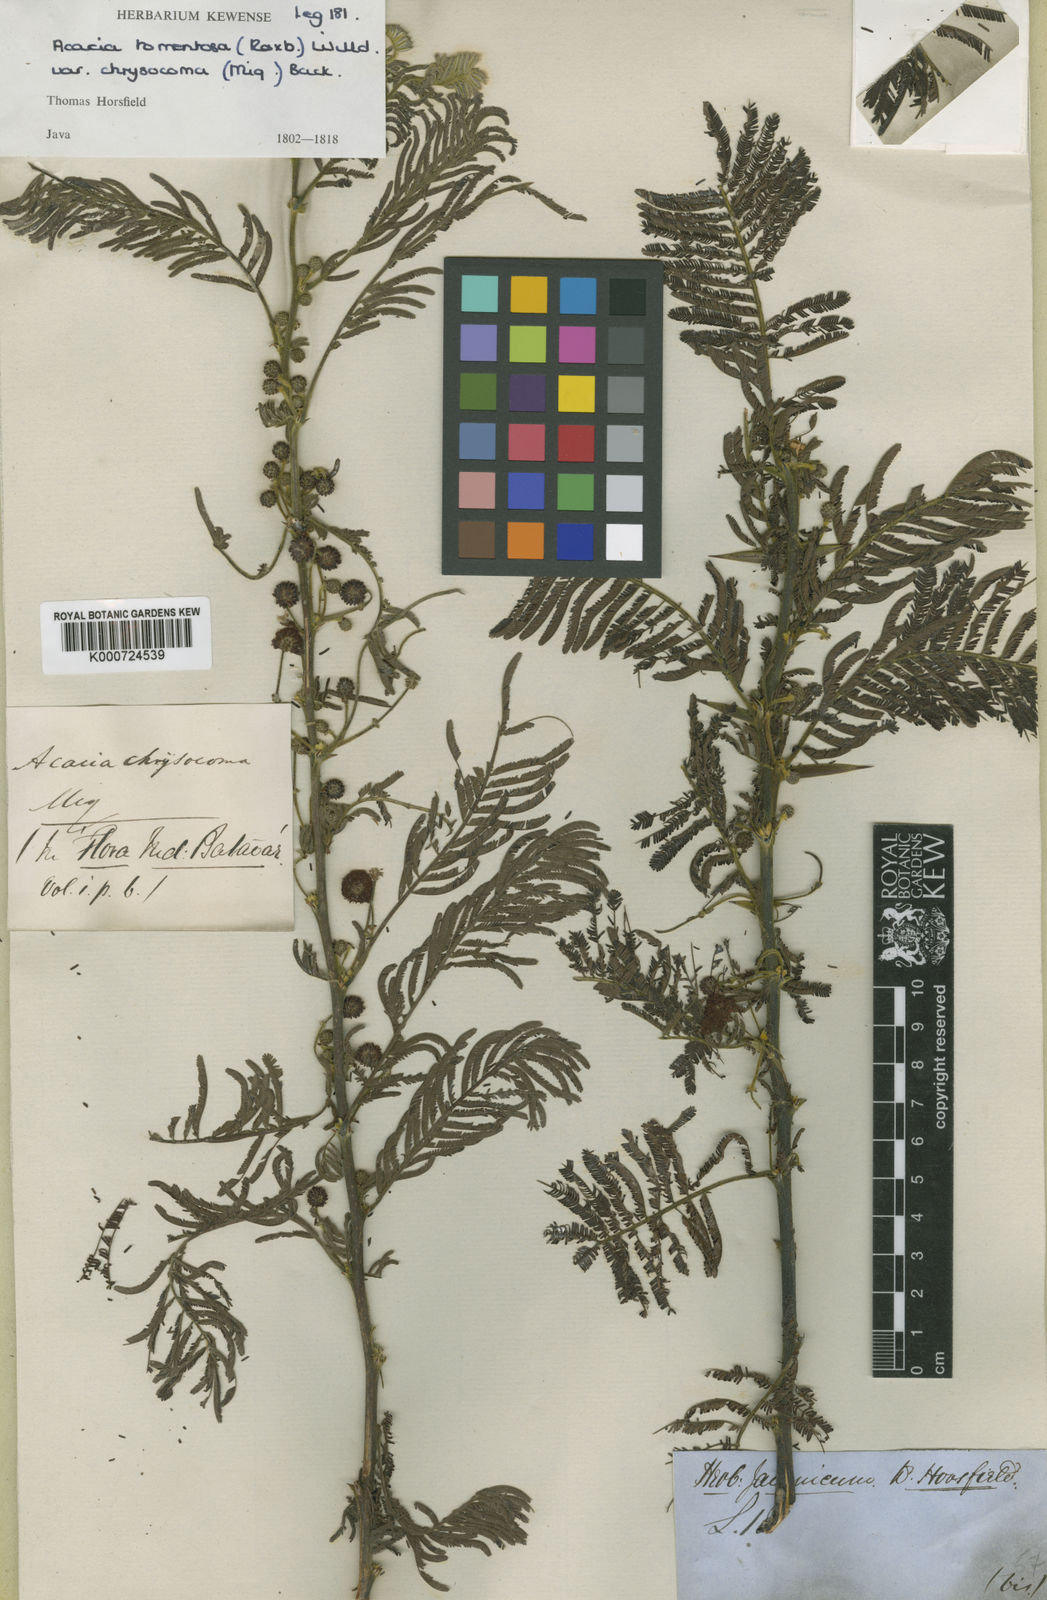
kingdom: Plantae
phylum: Tracheophyta
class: Magnoliopsida
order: Fabales
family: Fabaceae
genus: Vachellia
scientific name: Vachellia tomentosa
